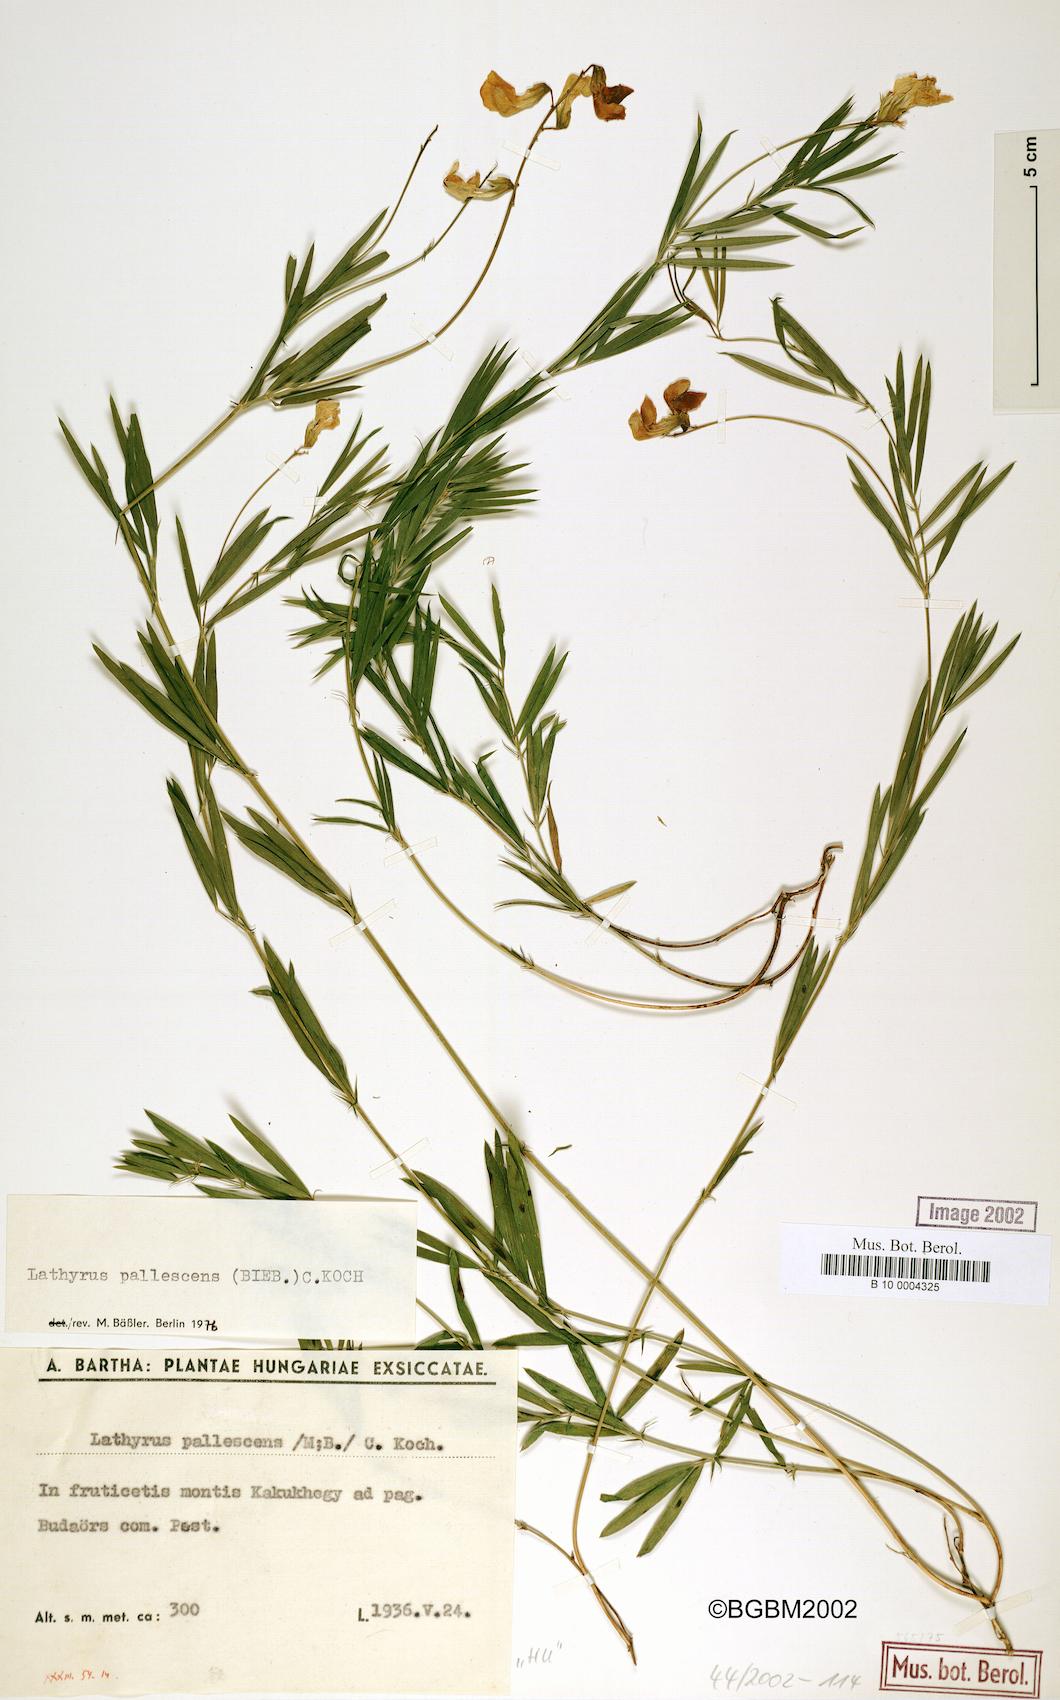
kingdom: Plantae
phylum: Tracheophyta
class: Magnoliopsida
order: Fabales
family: Fabaceae
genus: Lathyrus
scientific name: Lathyrus pallescens
